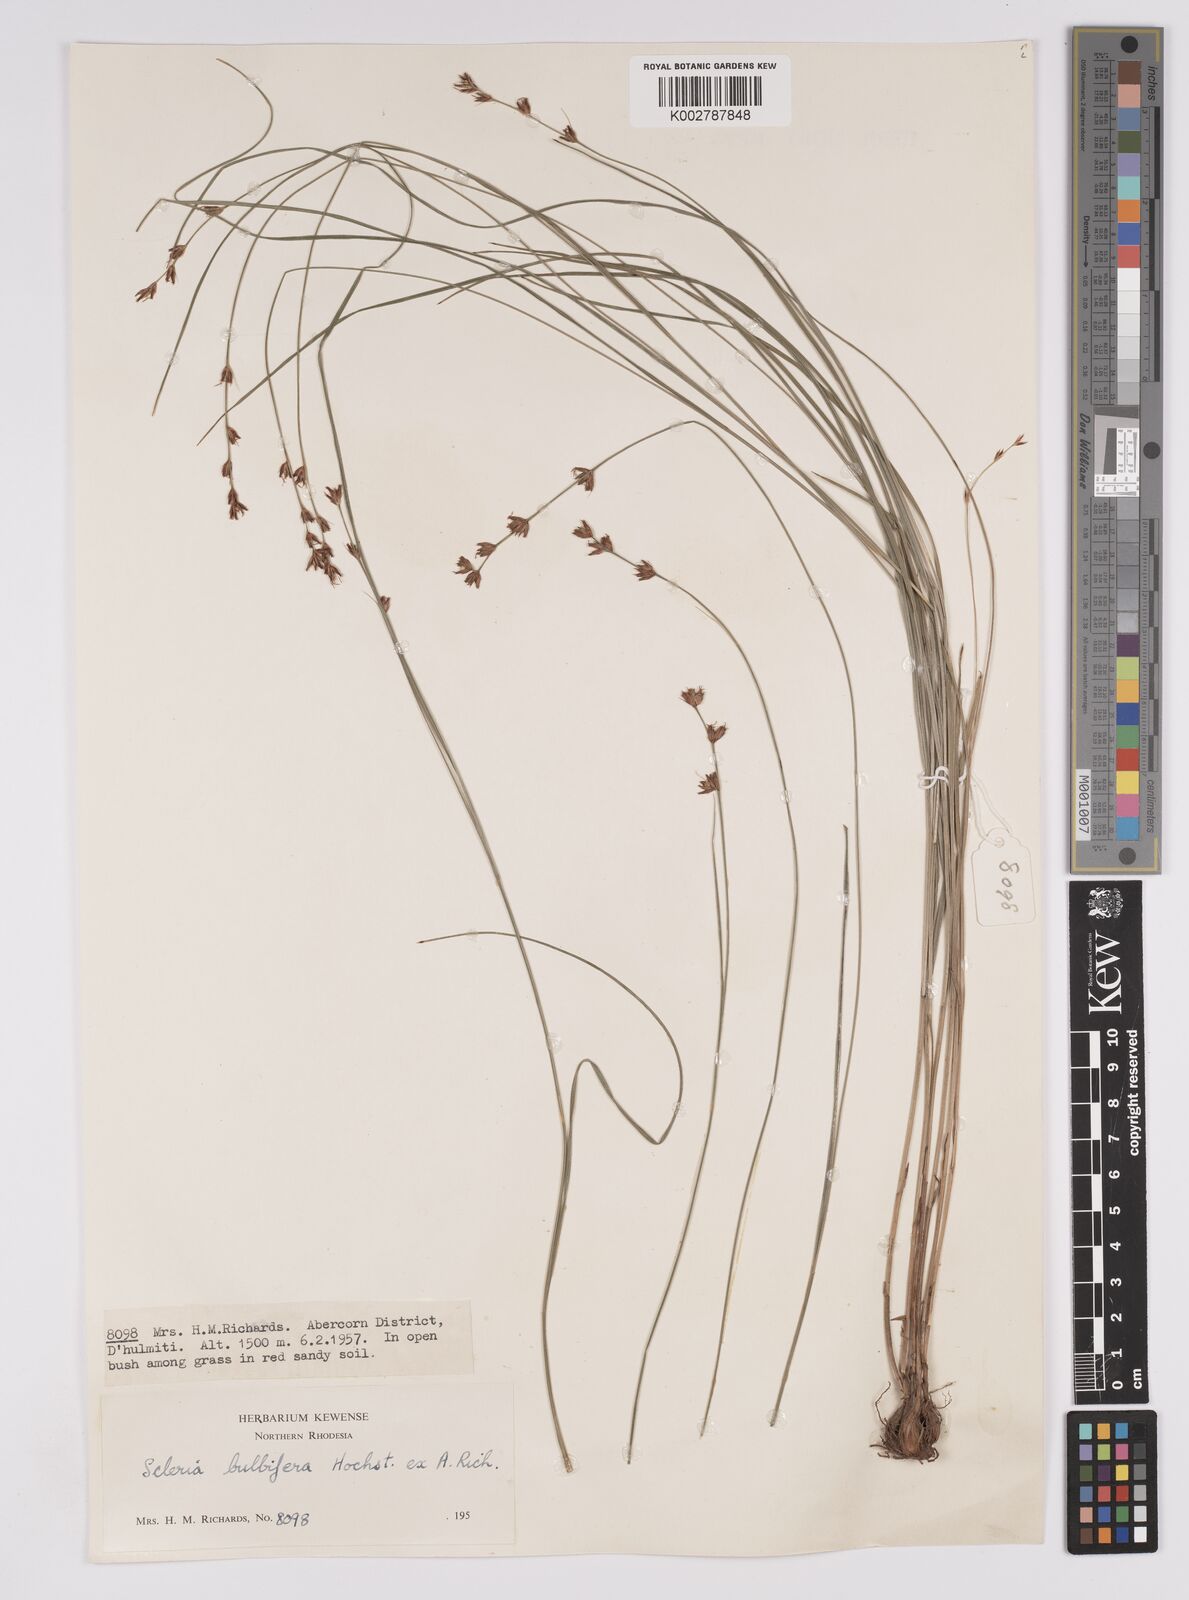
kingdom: Plantae
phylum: Tracheophyta
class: Liliopsida
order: Poales
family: Cyperaceae
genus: Scleria
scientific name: Scleria bulbifera
